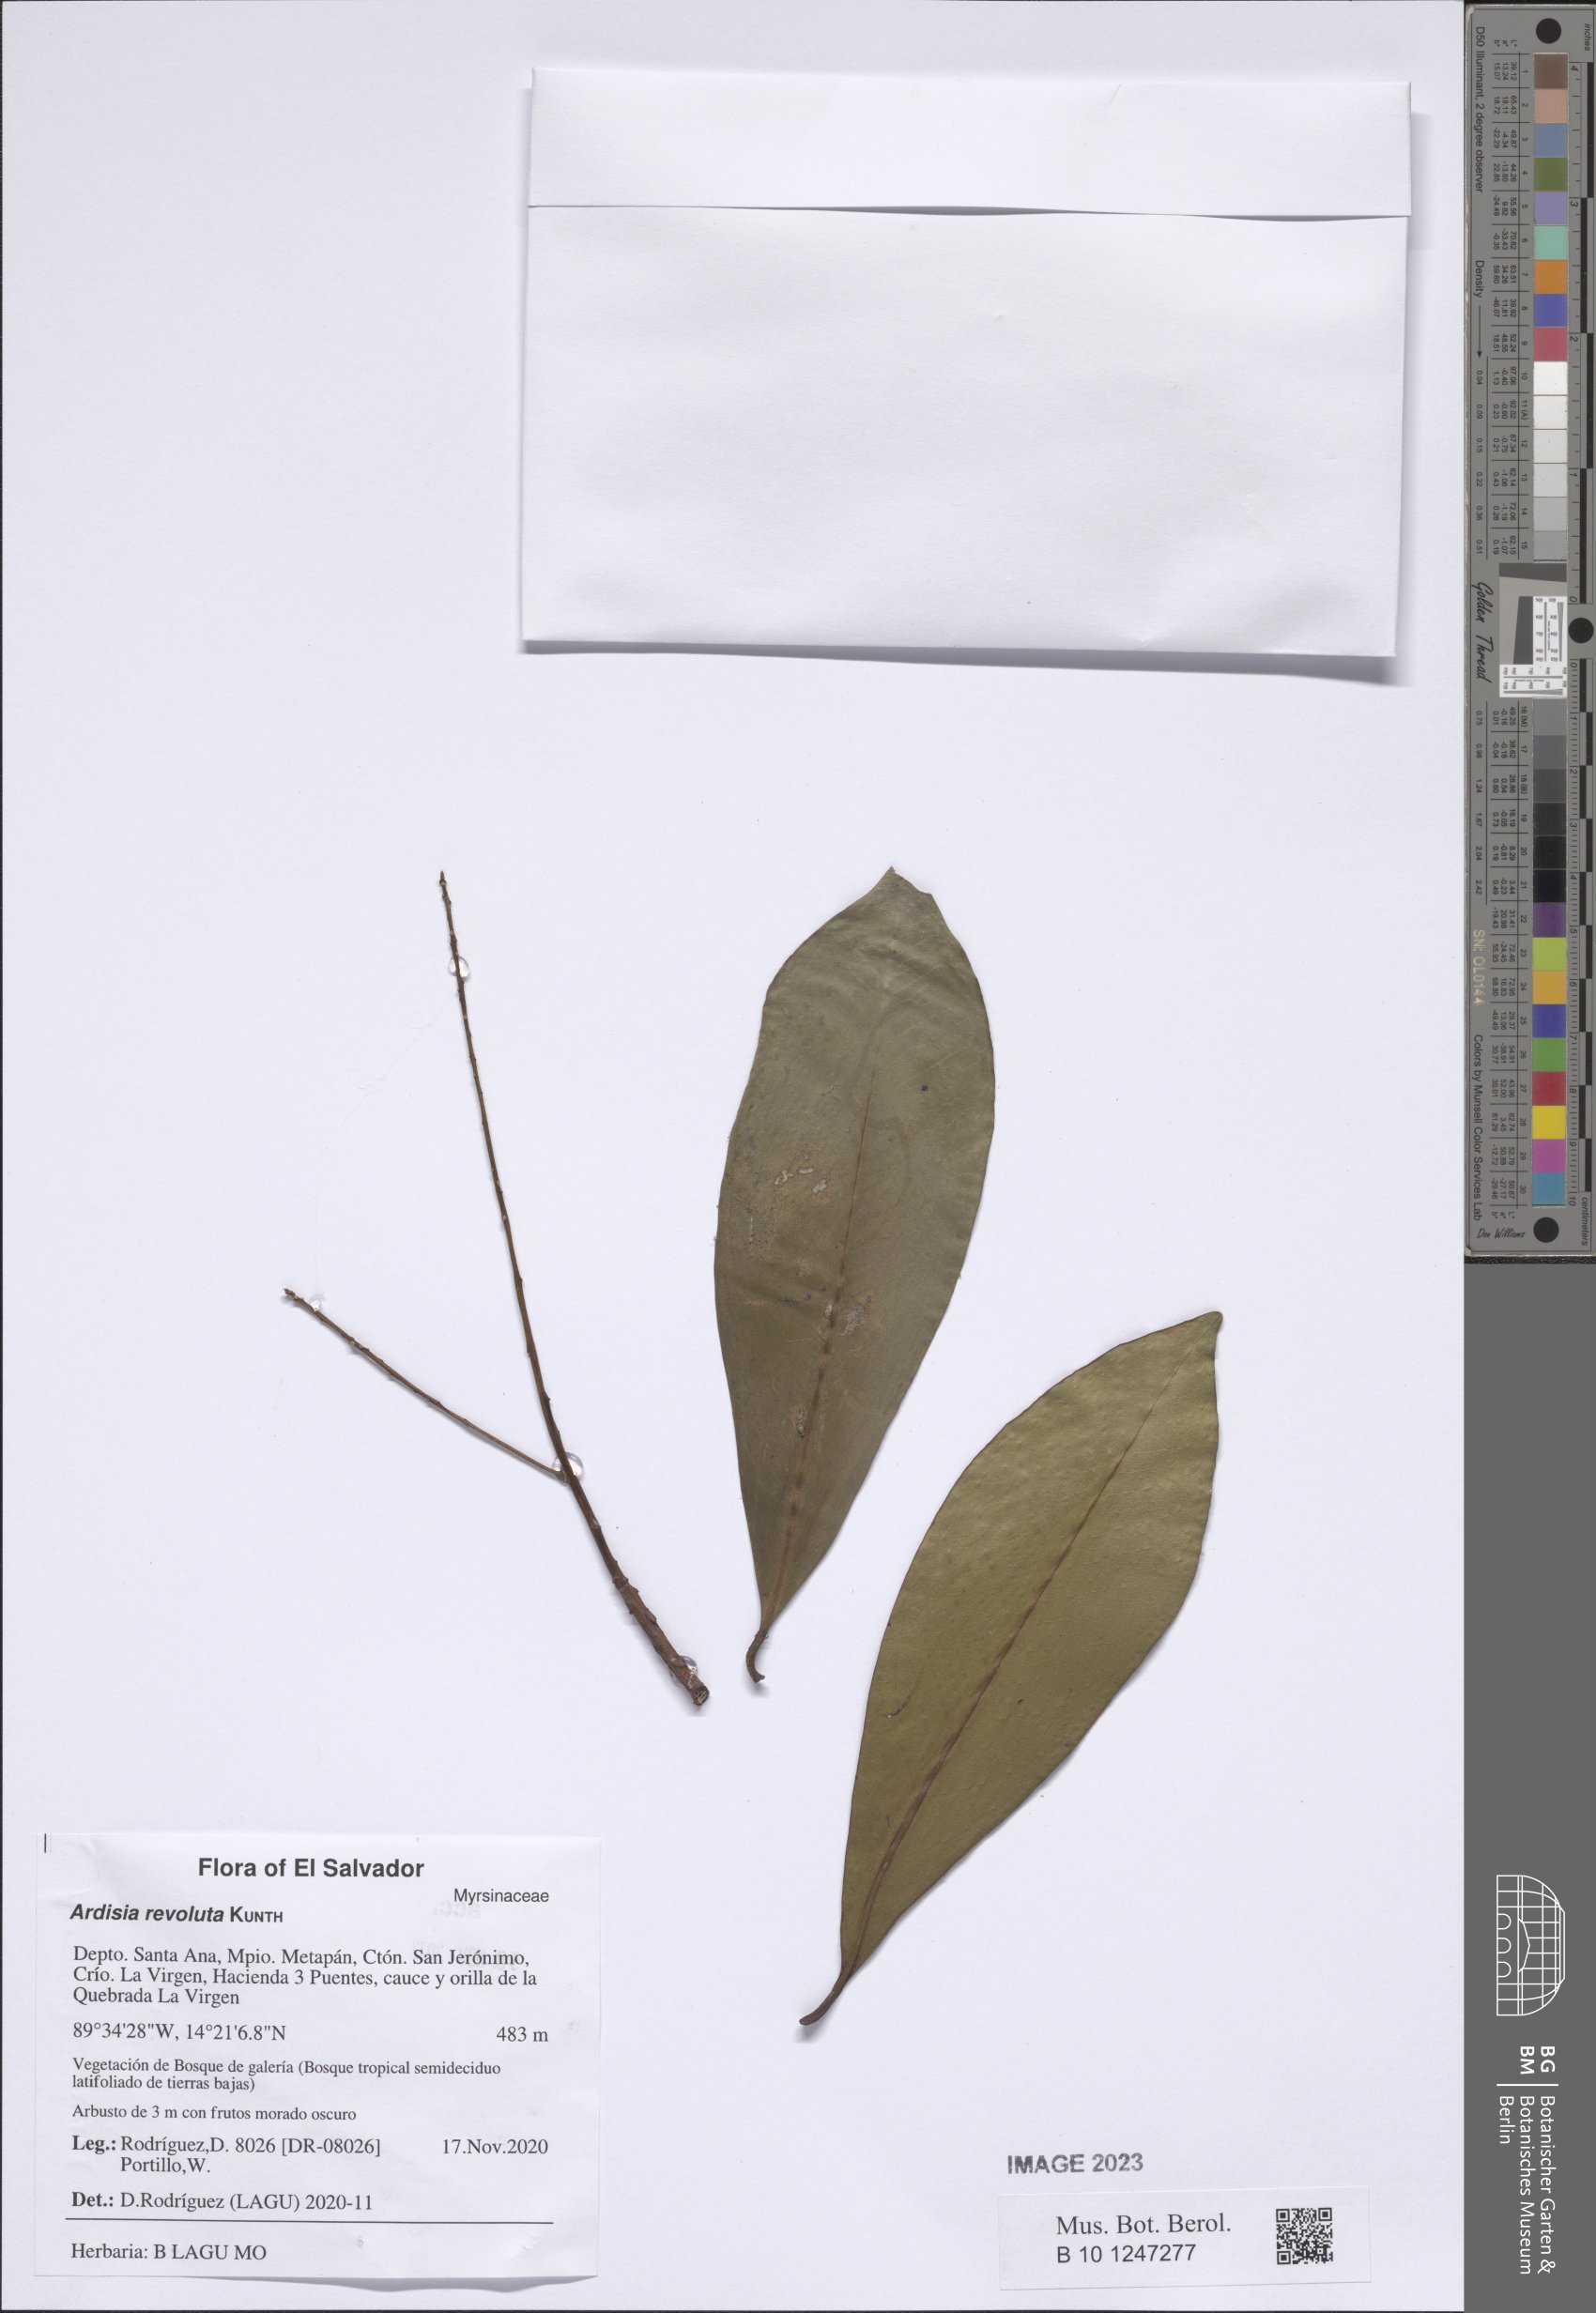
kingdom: Plantae
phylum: Tracheophyta
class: Magnoliopsida
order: Ericales
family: Primulaceae
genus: Ardisia
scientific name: Ardisia revoluta
